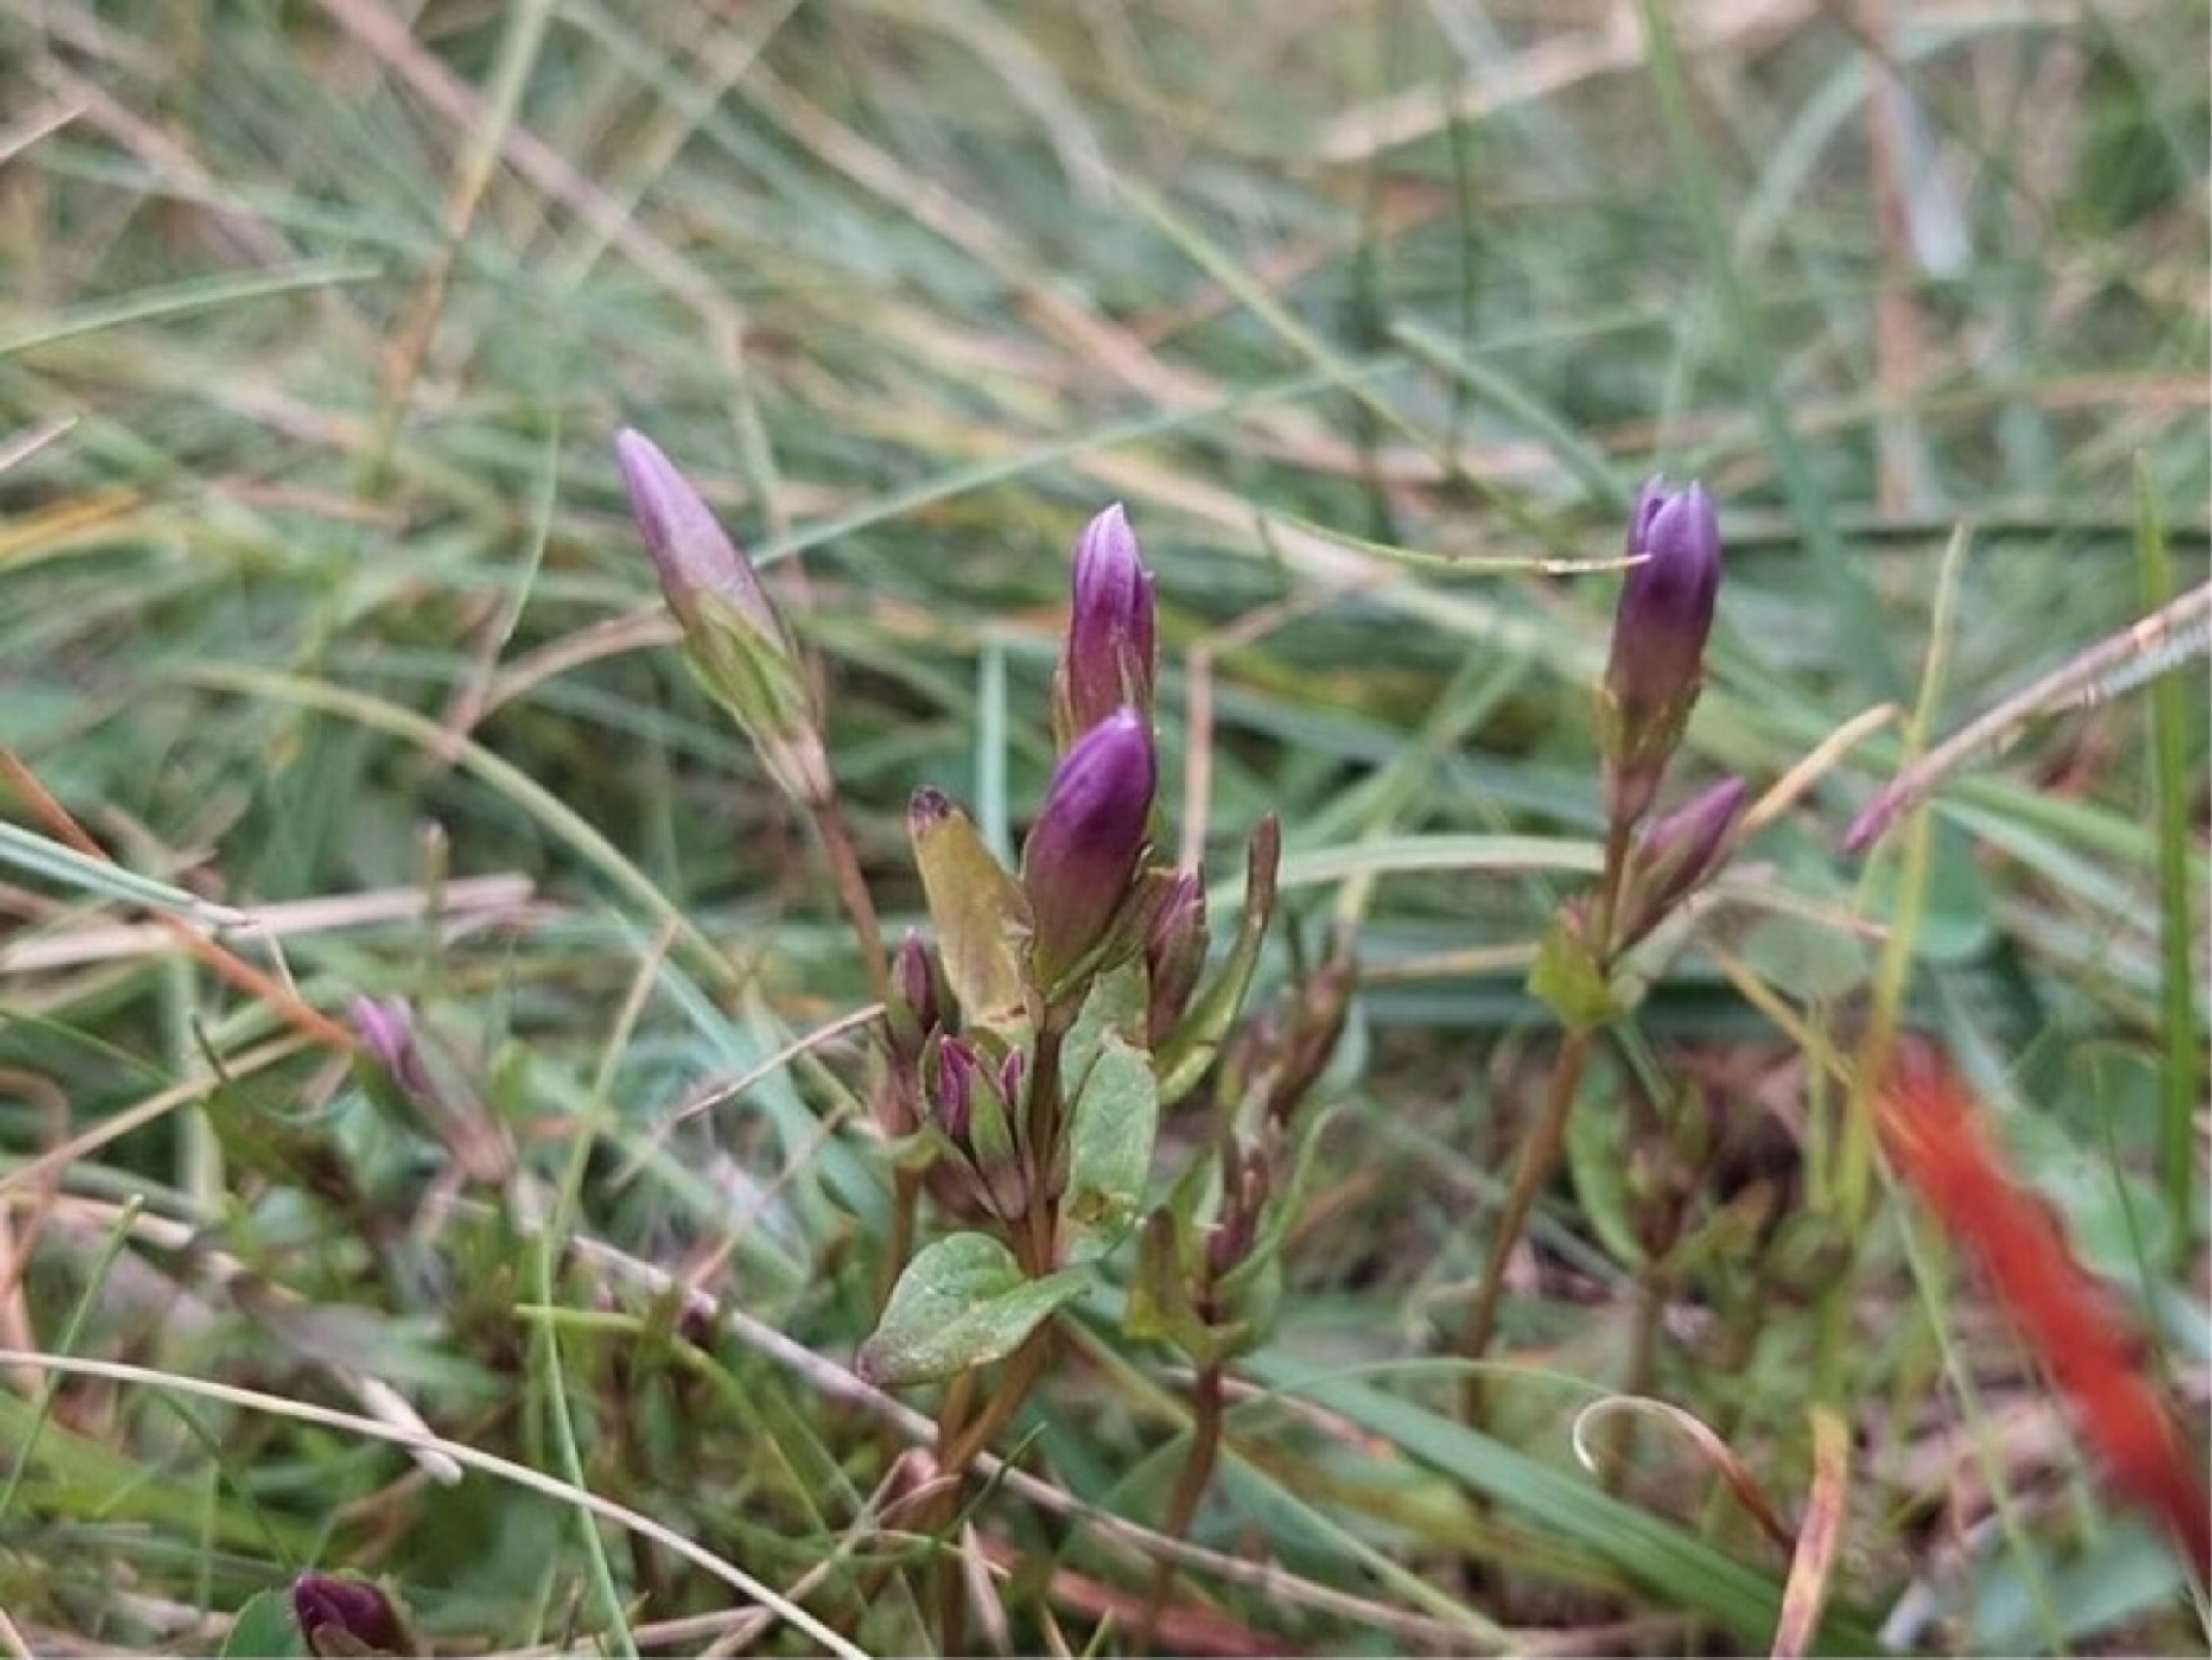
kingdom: Plantae
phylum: Tracheophyta
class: Magnoliopsida
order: Gentianales
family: Gentianaceae
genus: Gentianella
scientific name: Gentianella uliginosa
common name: Eng-ensian
